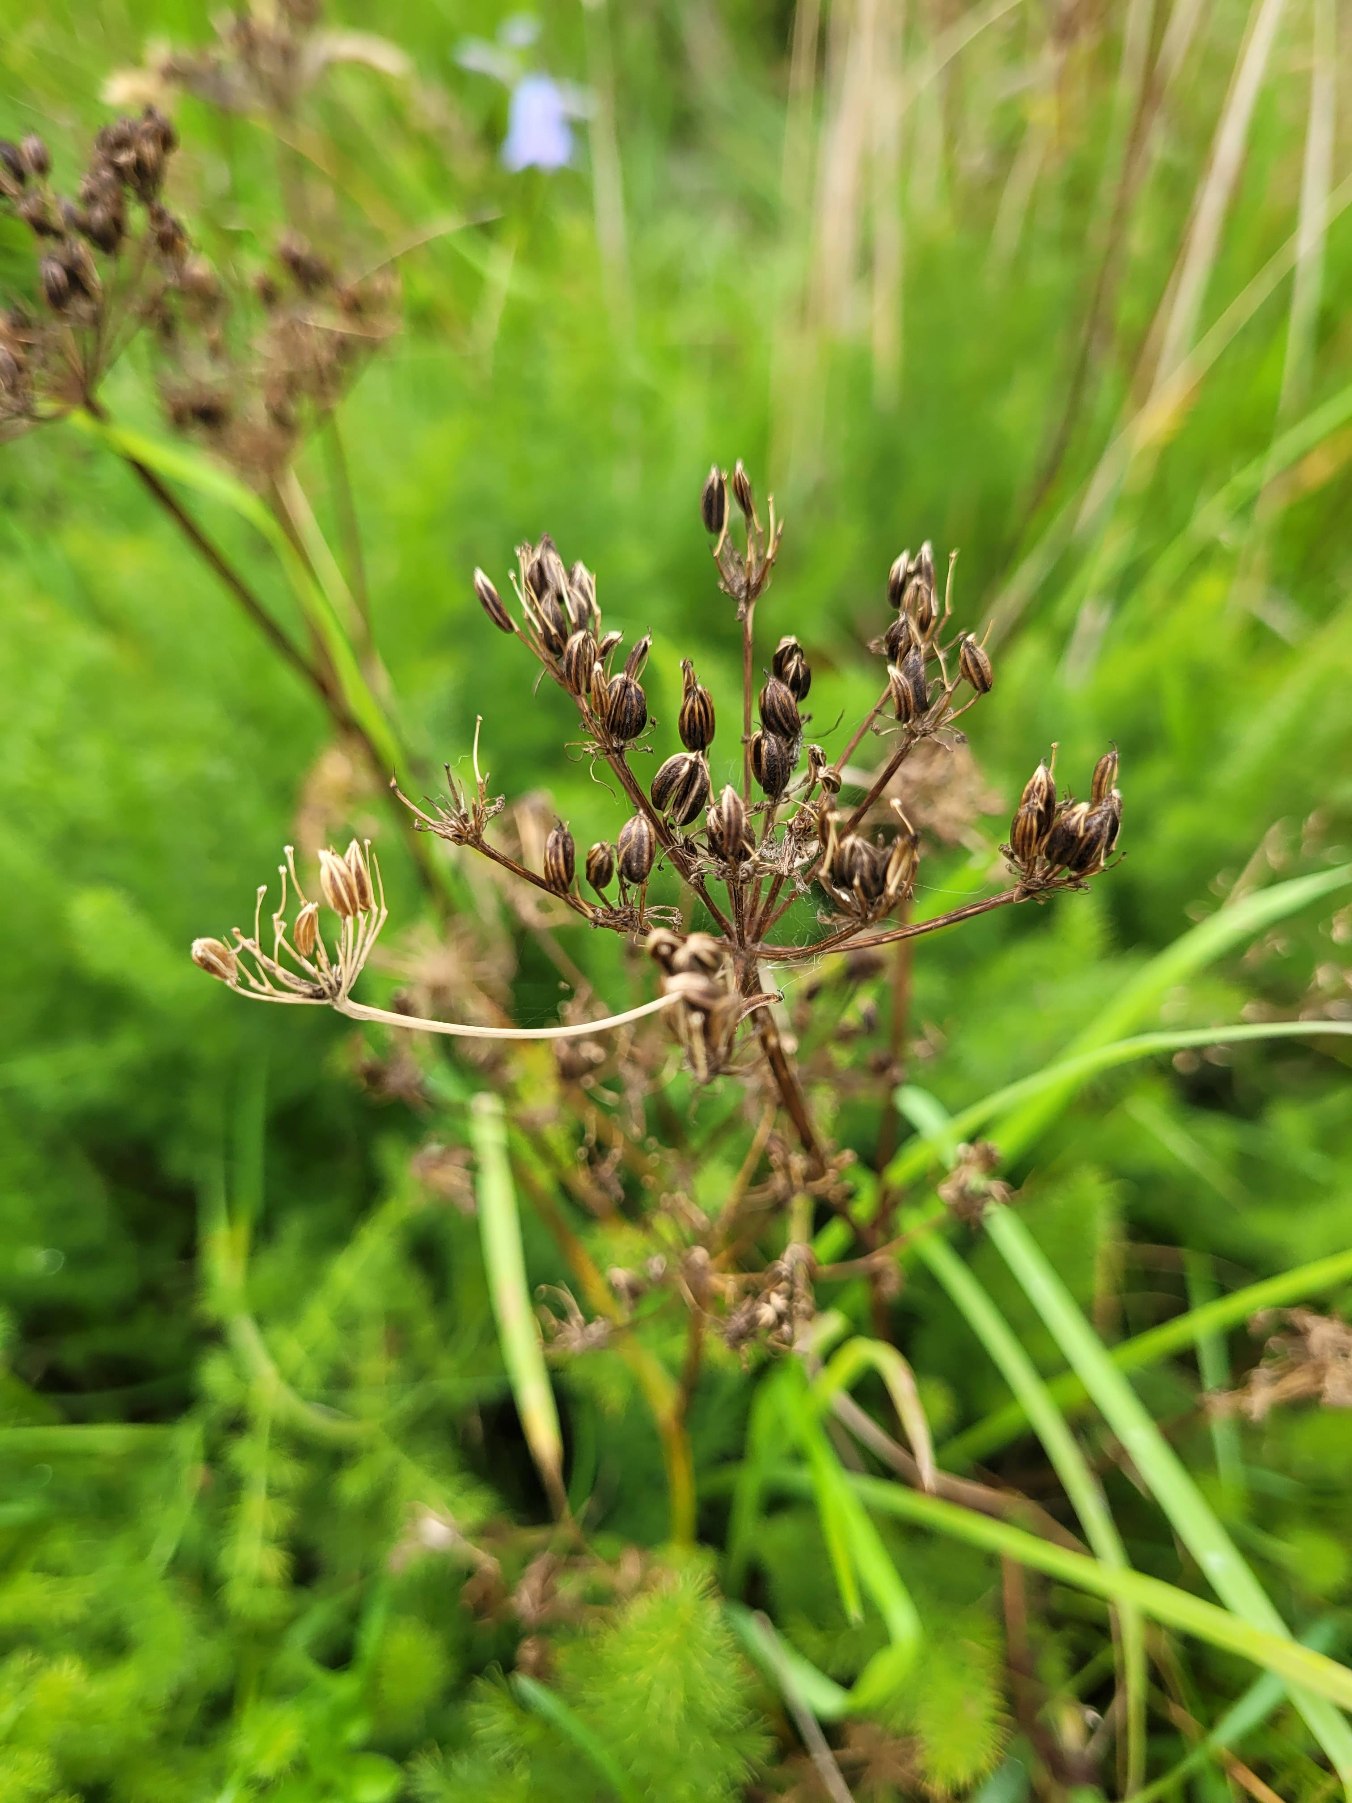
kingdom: Plantae
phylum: Tracheophyta
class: Magnoliopsida
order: Apiales
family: Apiaceae
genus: Meum
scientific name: Meum athamanticum
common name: Bjørnerod
